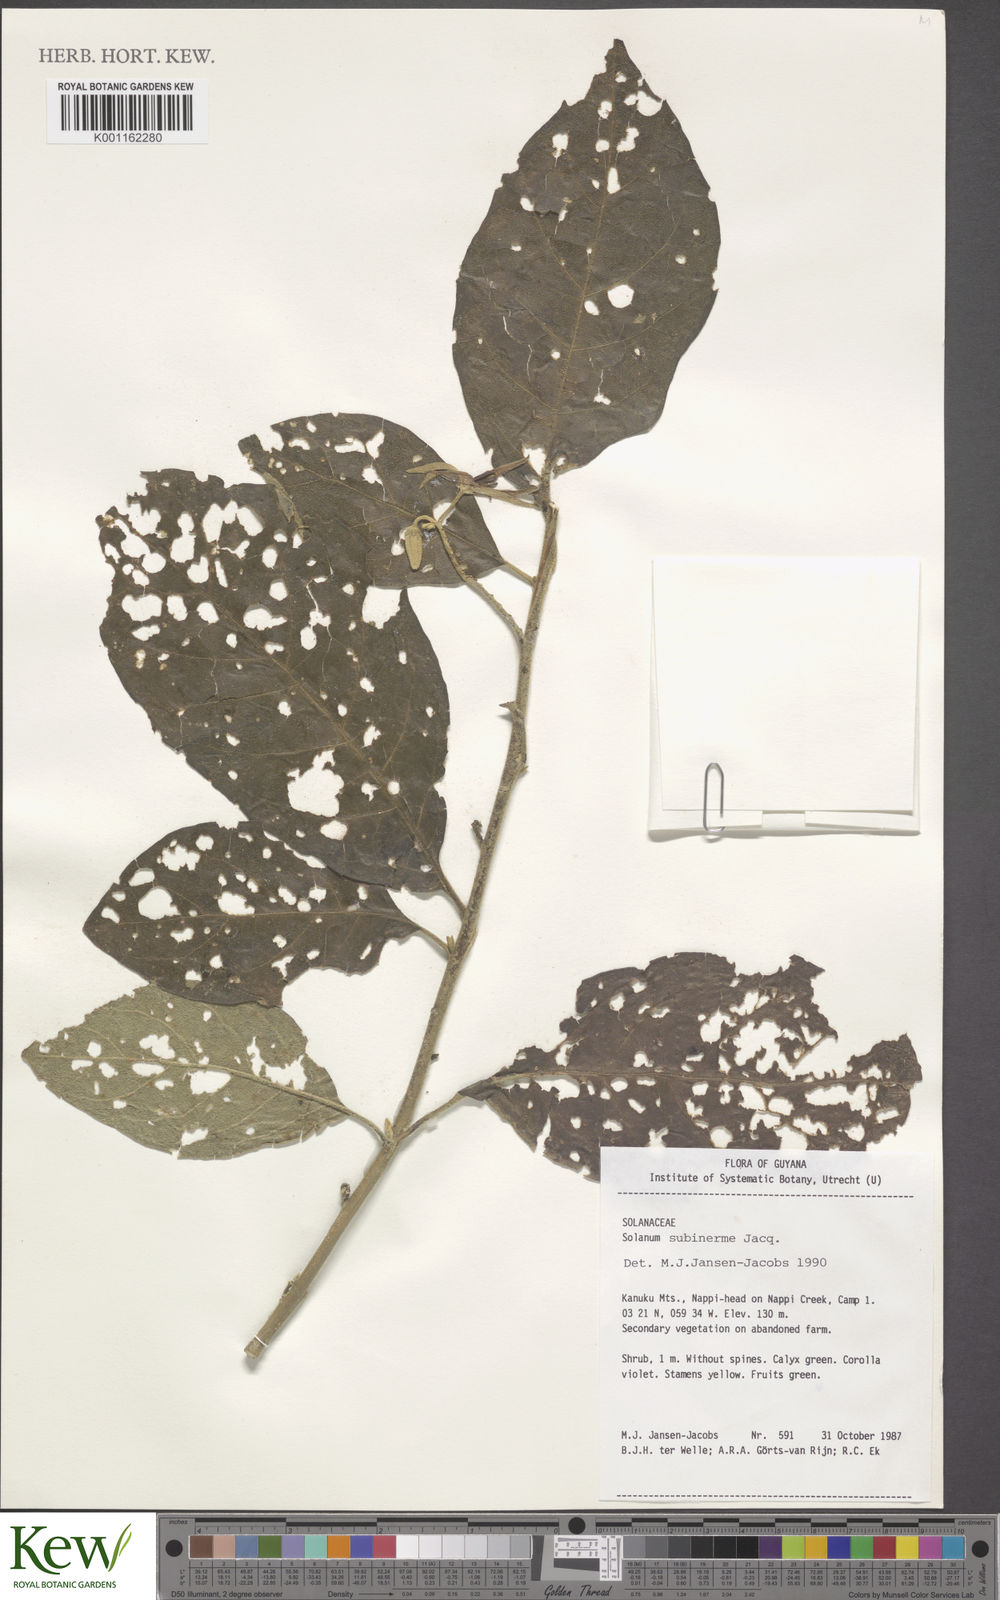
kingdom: Plantae
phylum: Tracheophyta
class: Magnoliopsida
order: Solanales
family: Solanaceae
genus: Solanum
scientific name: Solanum subinerme
